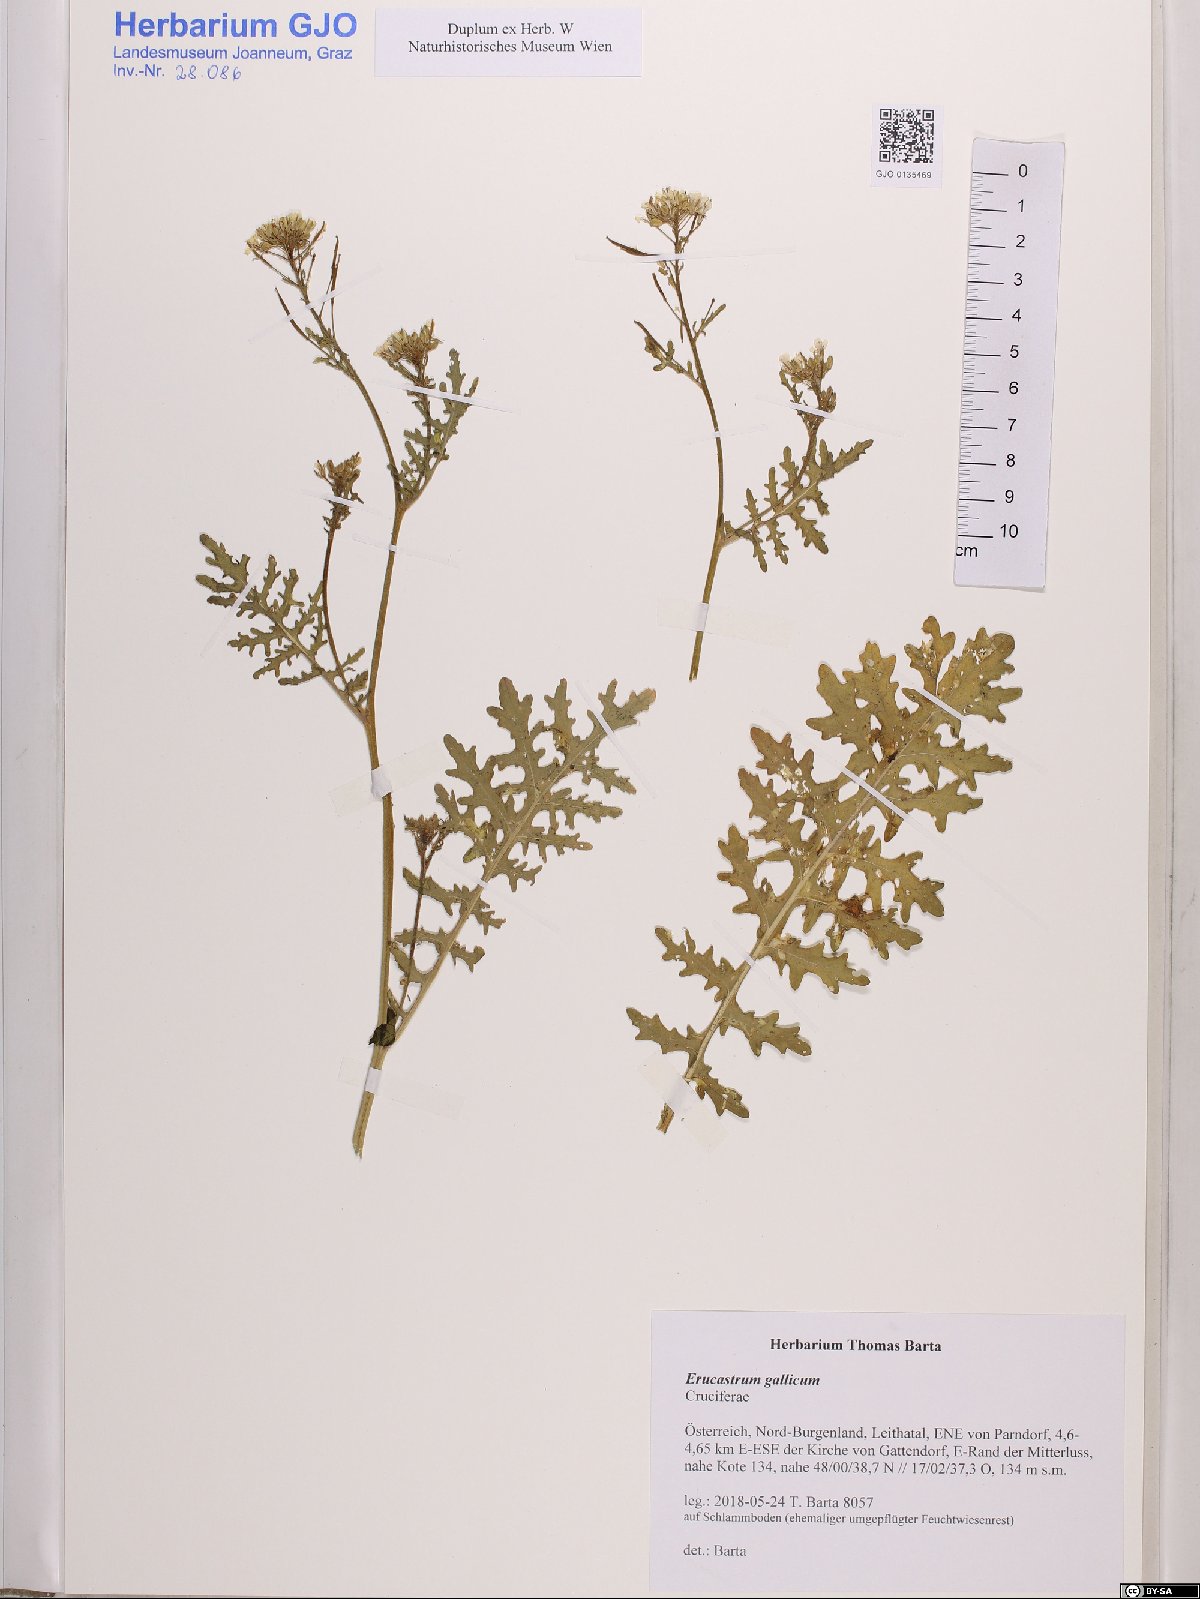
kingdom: Plantae
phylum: Tracheophyta
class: Magnoliopsida
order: Brassicales
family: Brassicaceae
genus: Erucastrum
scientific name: Erucastrum gallicum
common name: Hairy rocket
